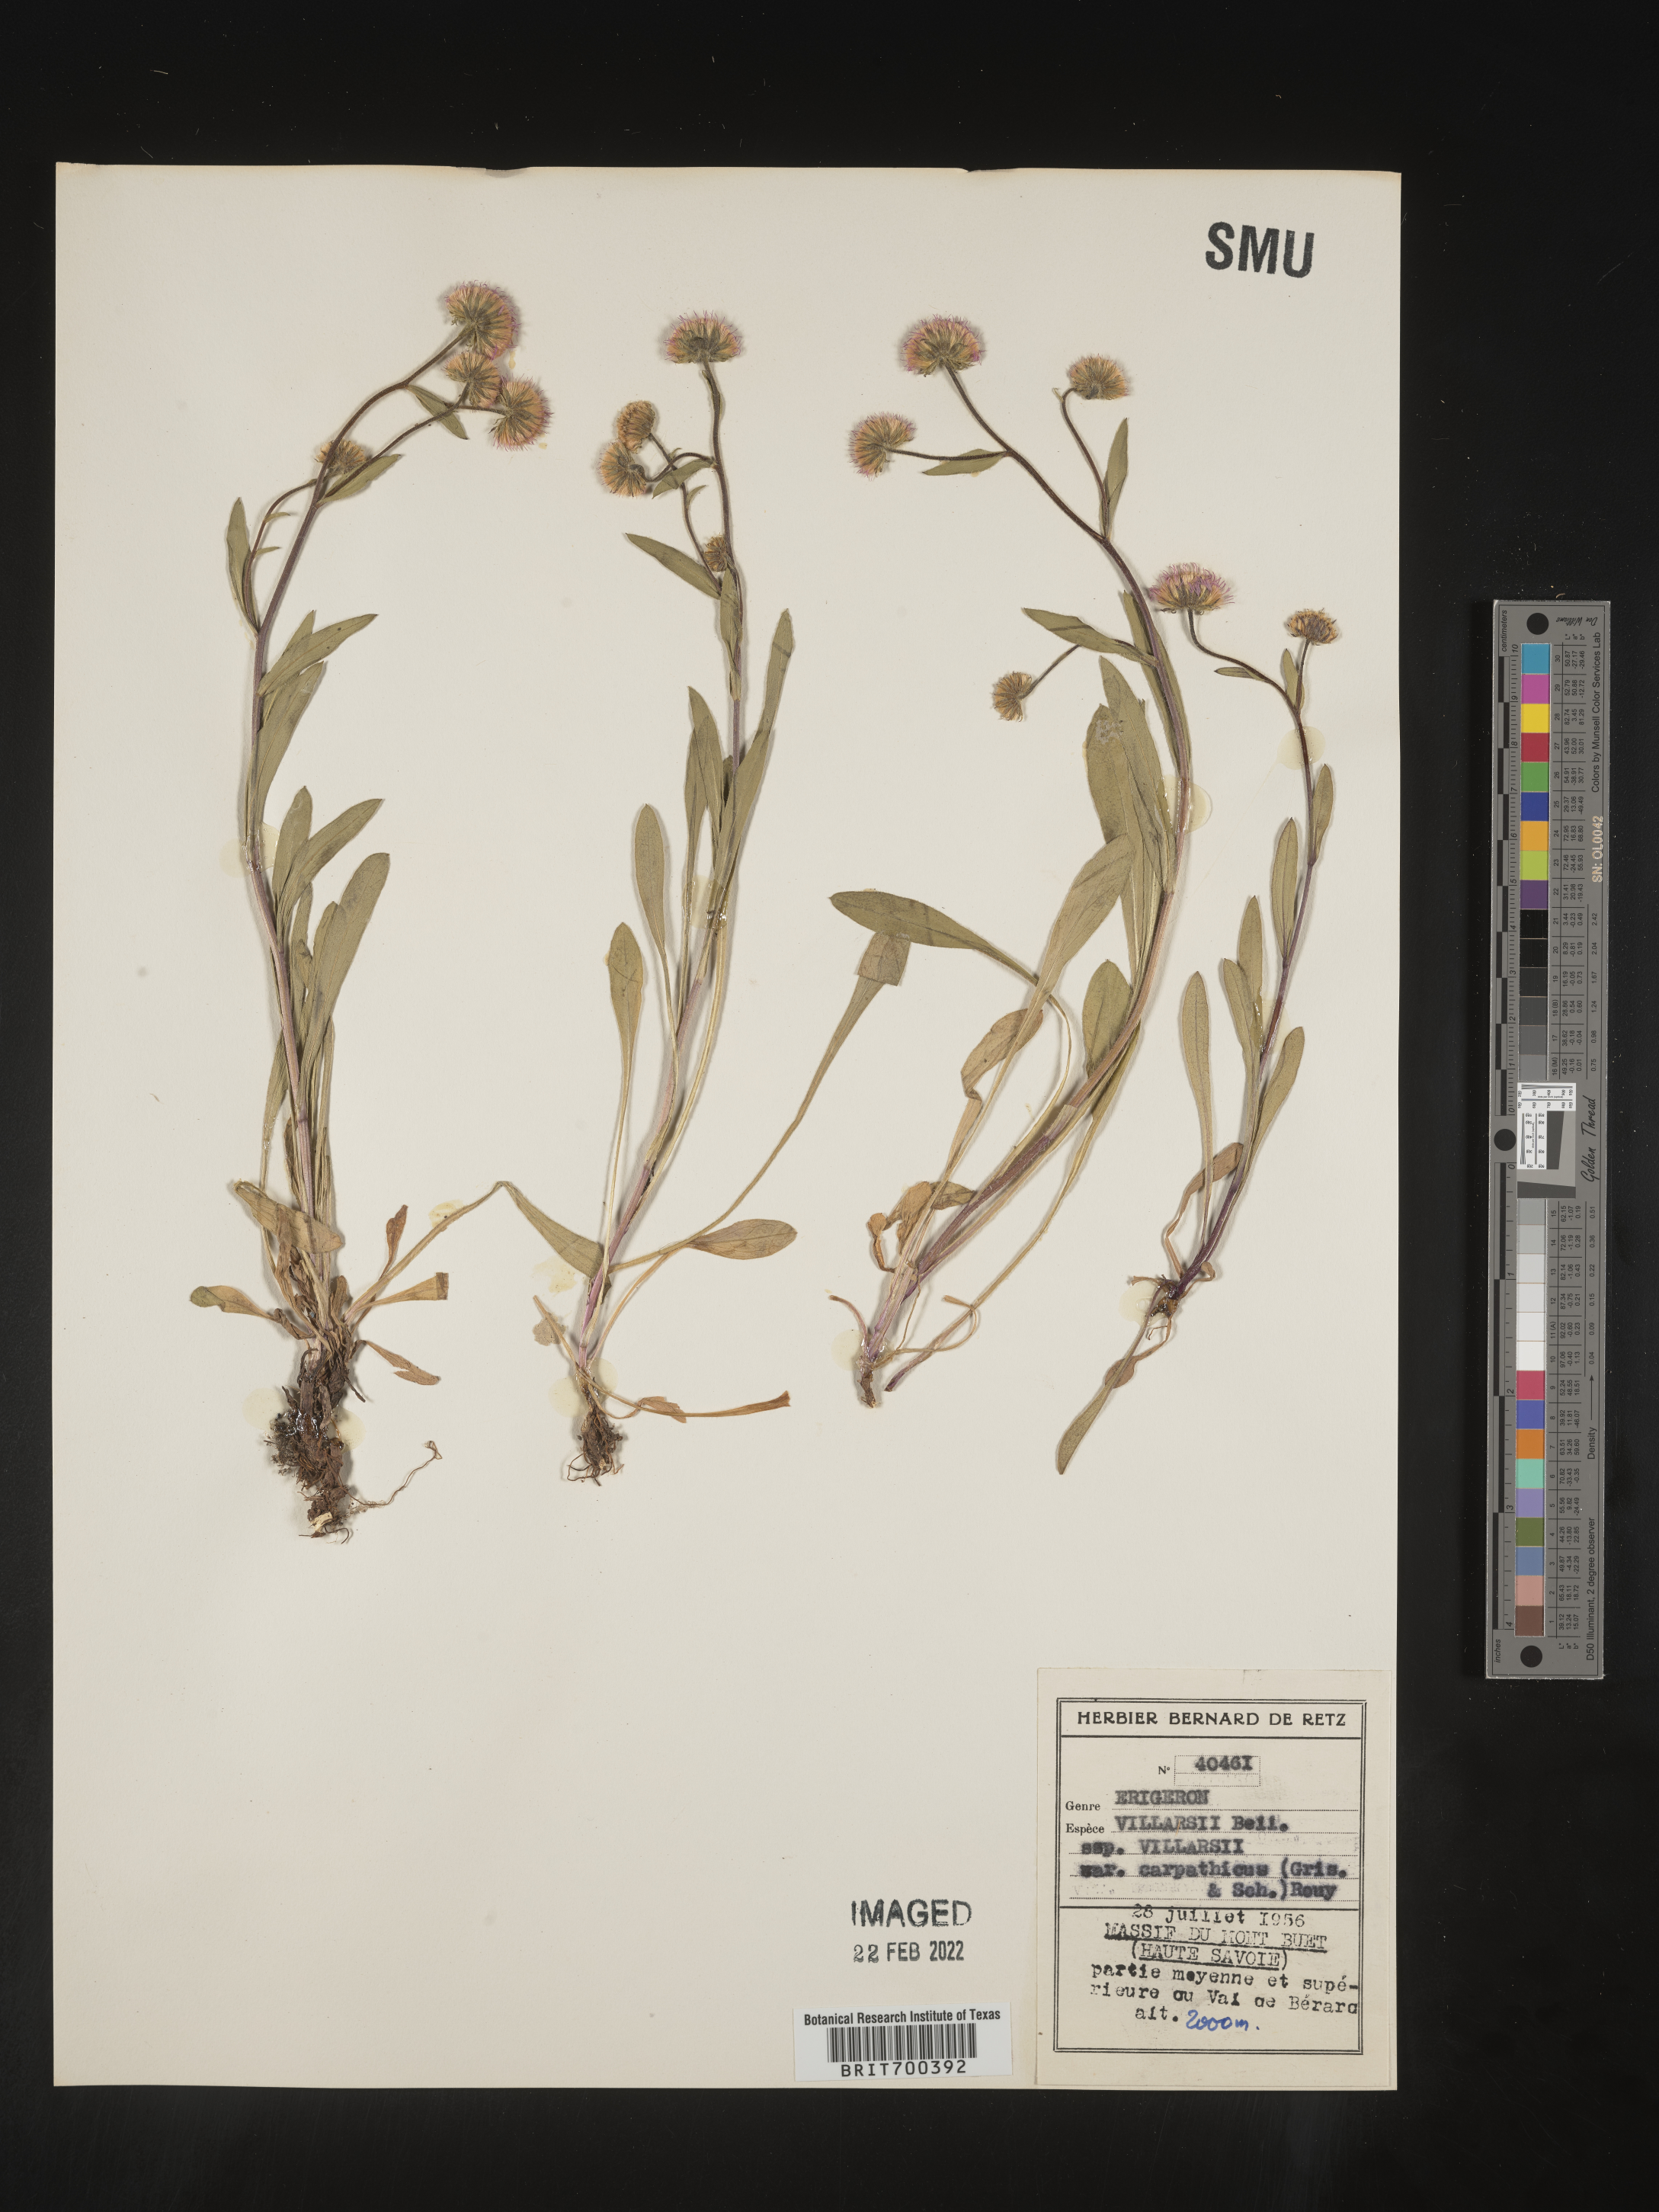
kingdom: Plantae
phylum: Tracheophyta
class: Magnoliopsida
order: Asterales
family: Asteraceae
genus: Erigeron
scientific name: Erigeron
